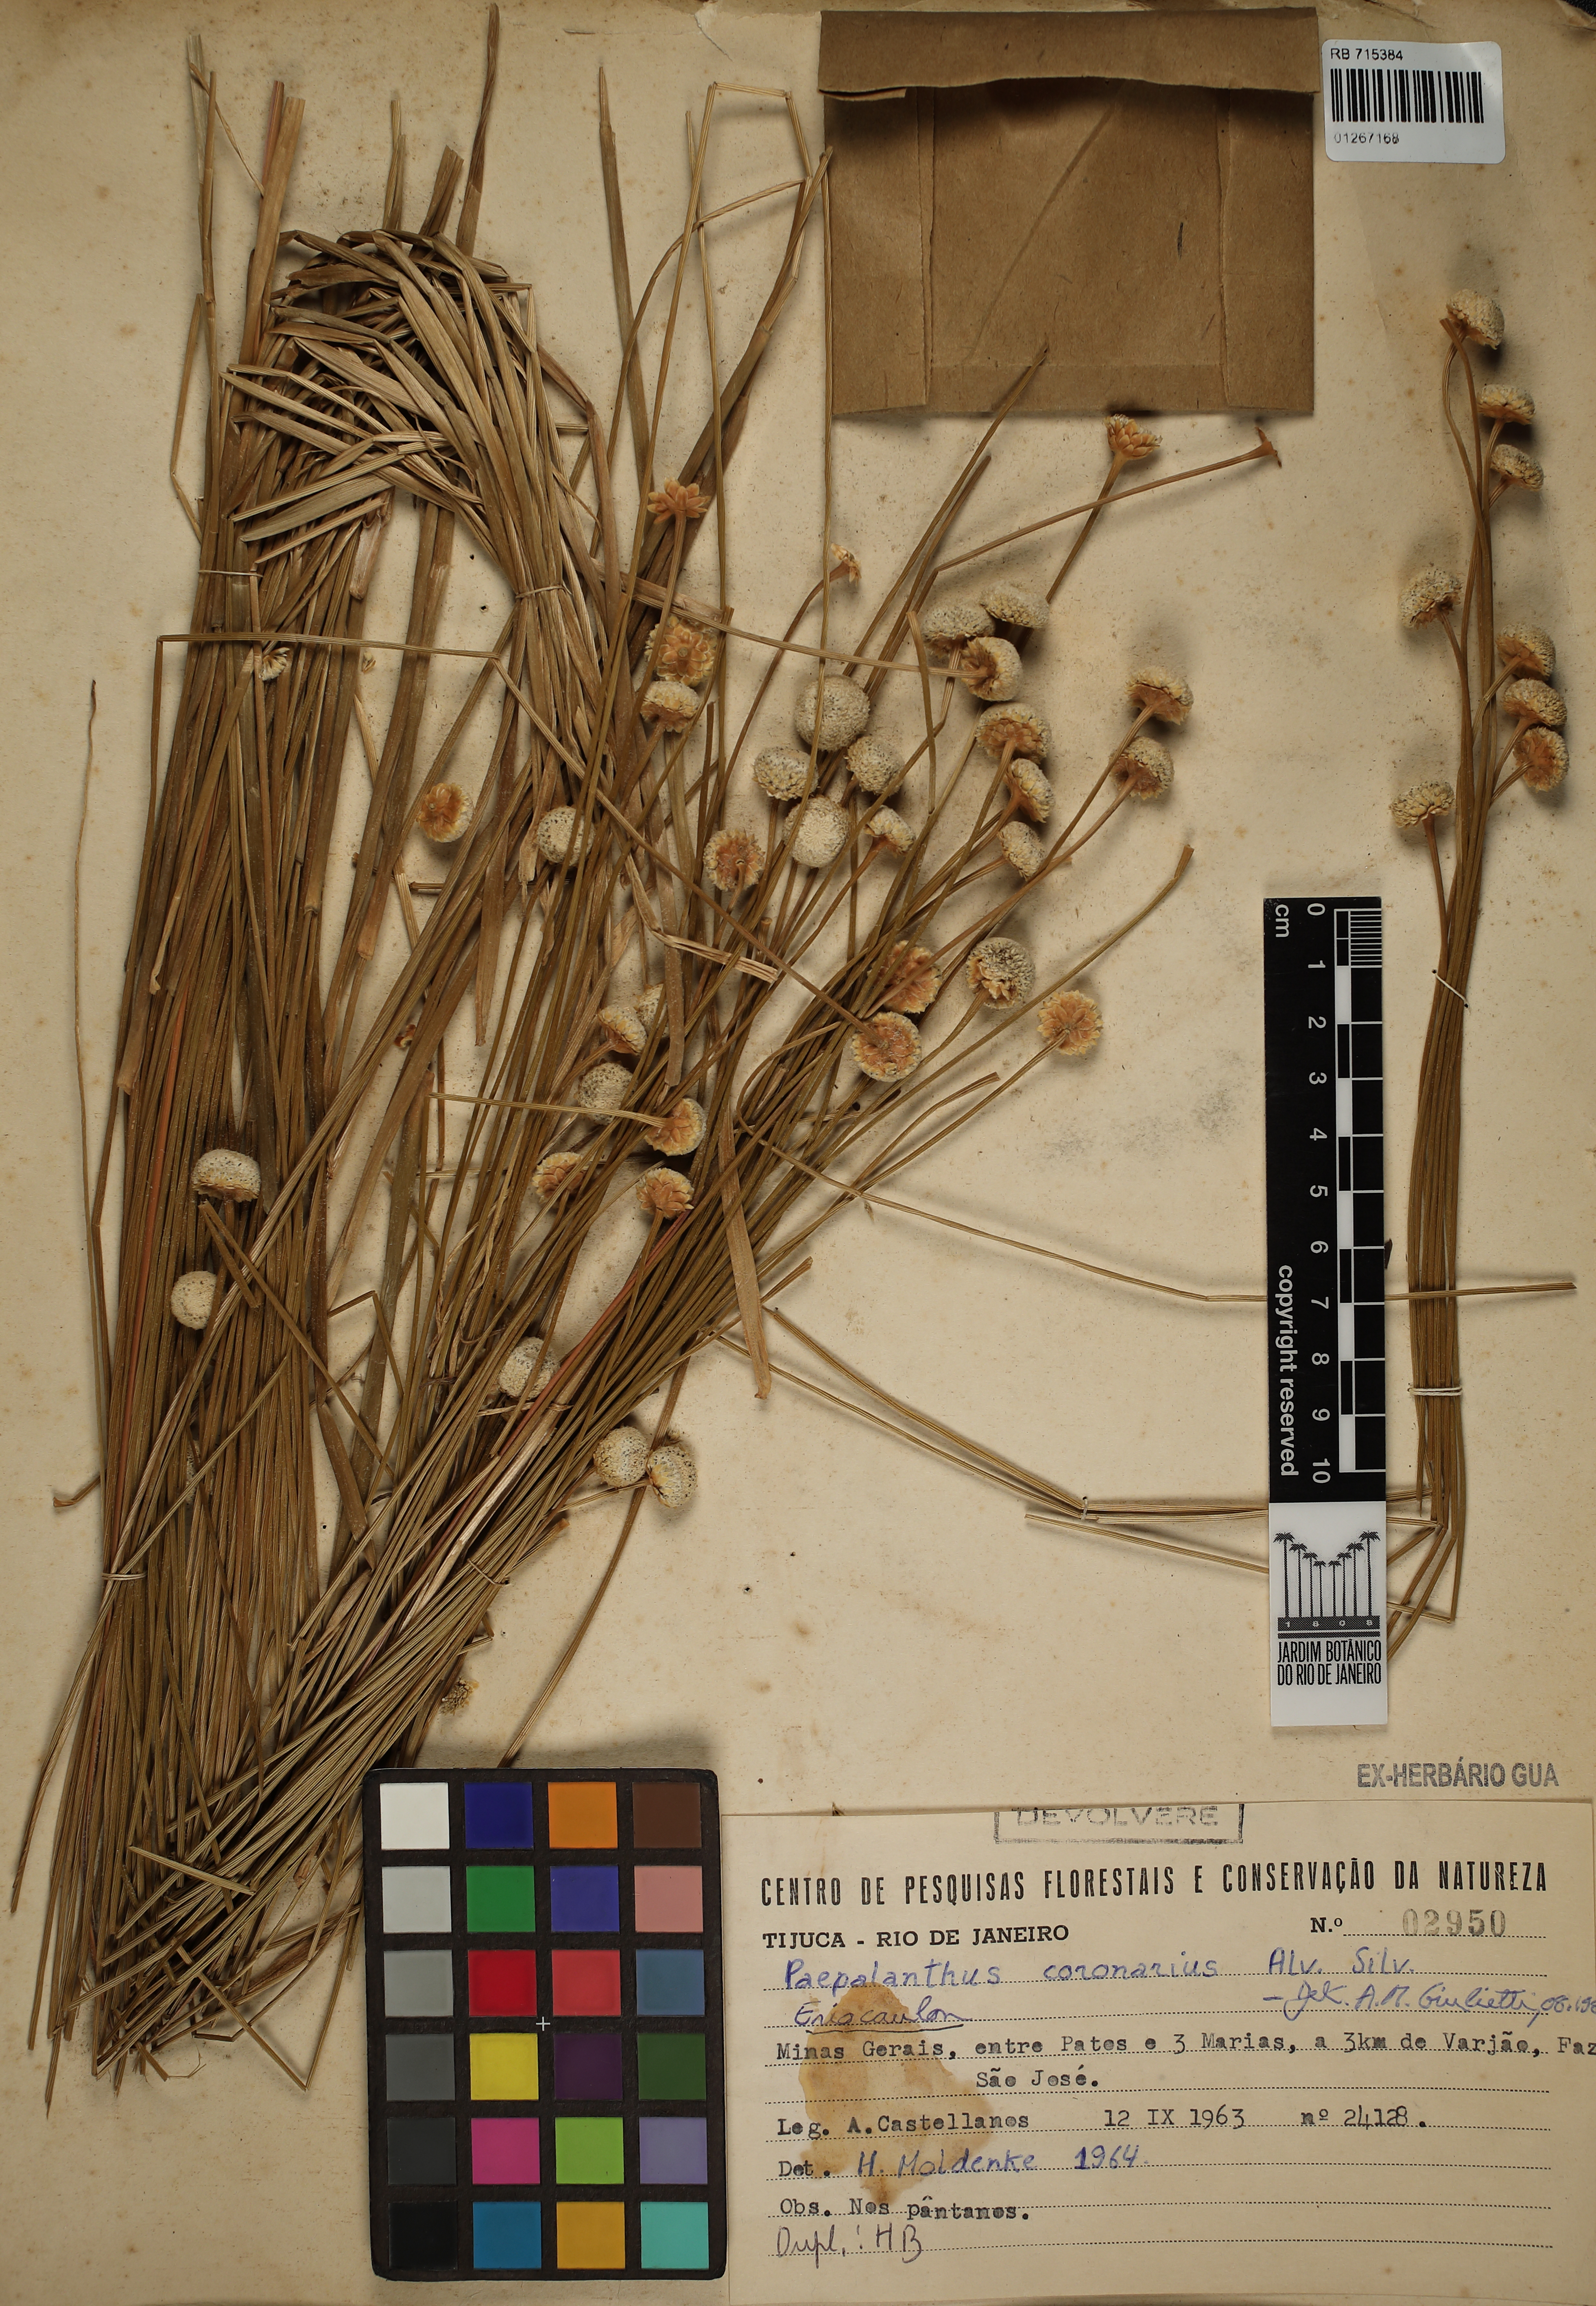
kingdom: Plantae
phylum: Tracheophyta
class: Liliopsida
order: Poales
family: Eriocaulaceae
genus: Paepalanthus
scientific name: Paepalanthus coronarius
